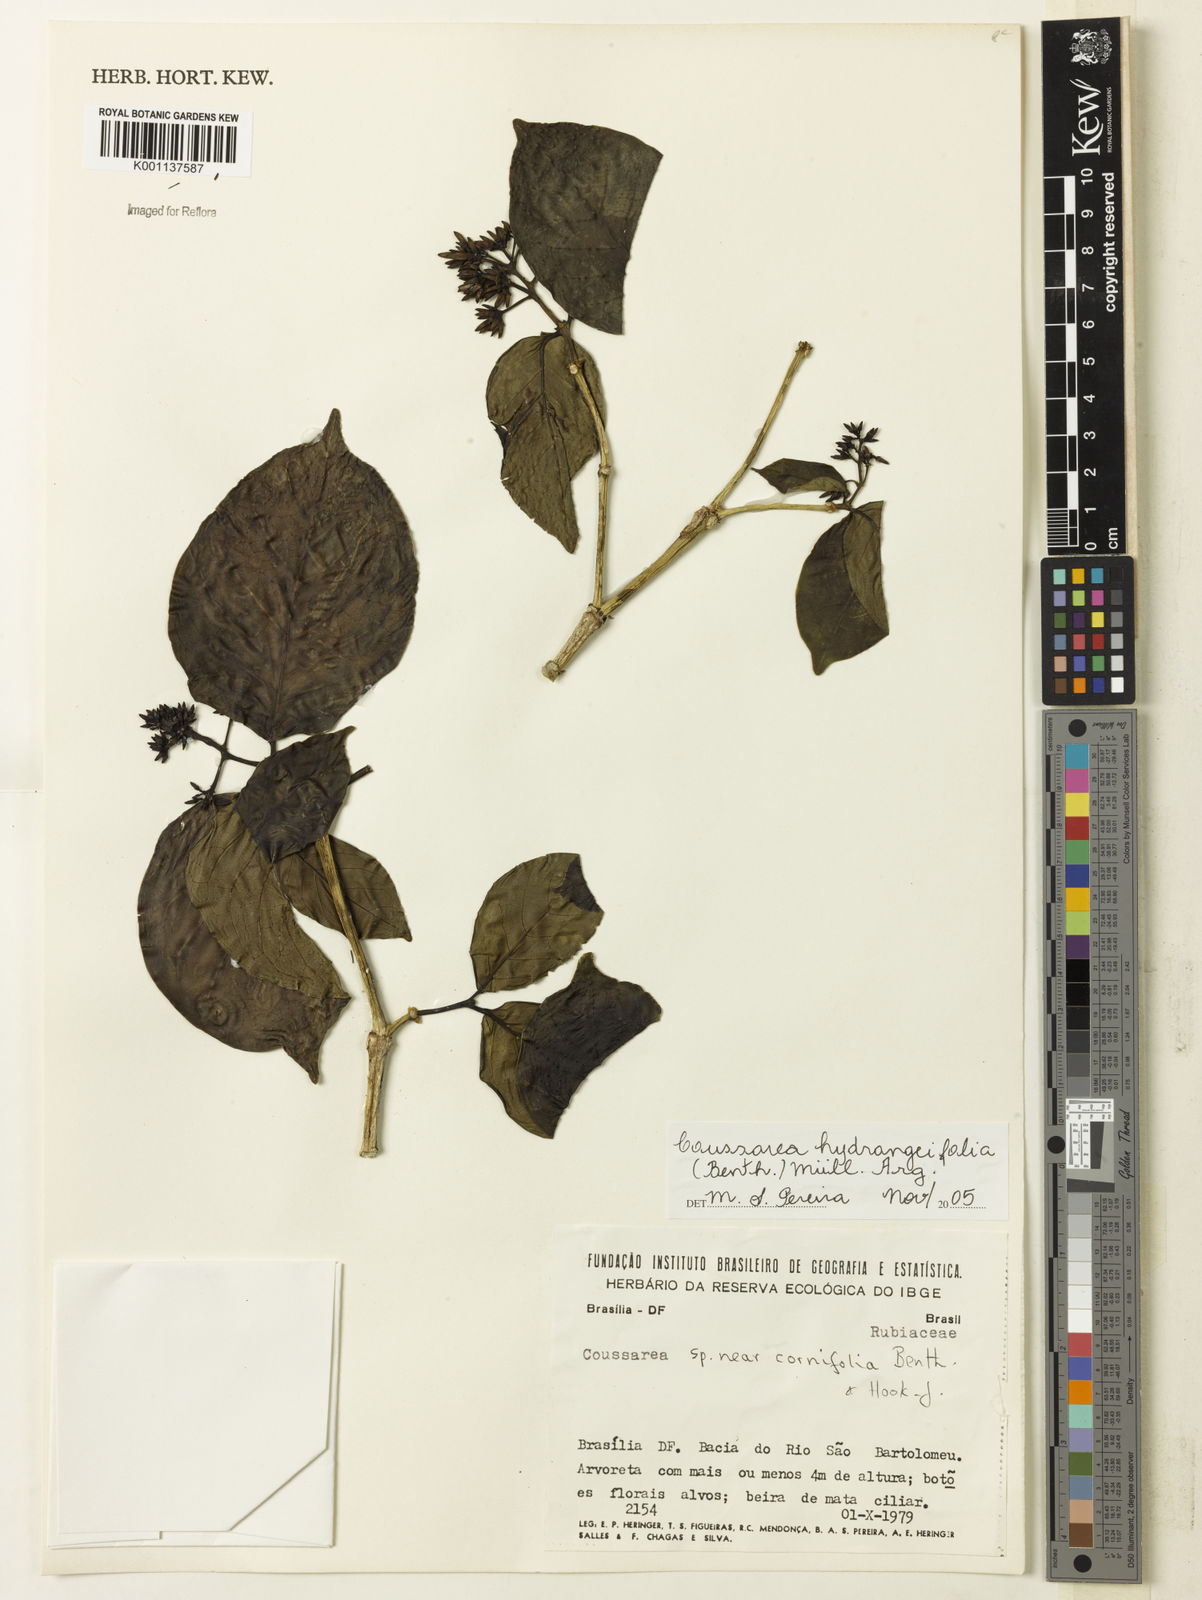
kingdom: Plantae
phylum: Tracheophyta
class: Magnoliopsida
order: Gentianales
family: Rubiaceae
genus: Coussarea
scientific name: Coussarea
